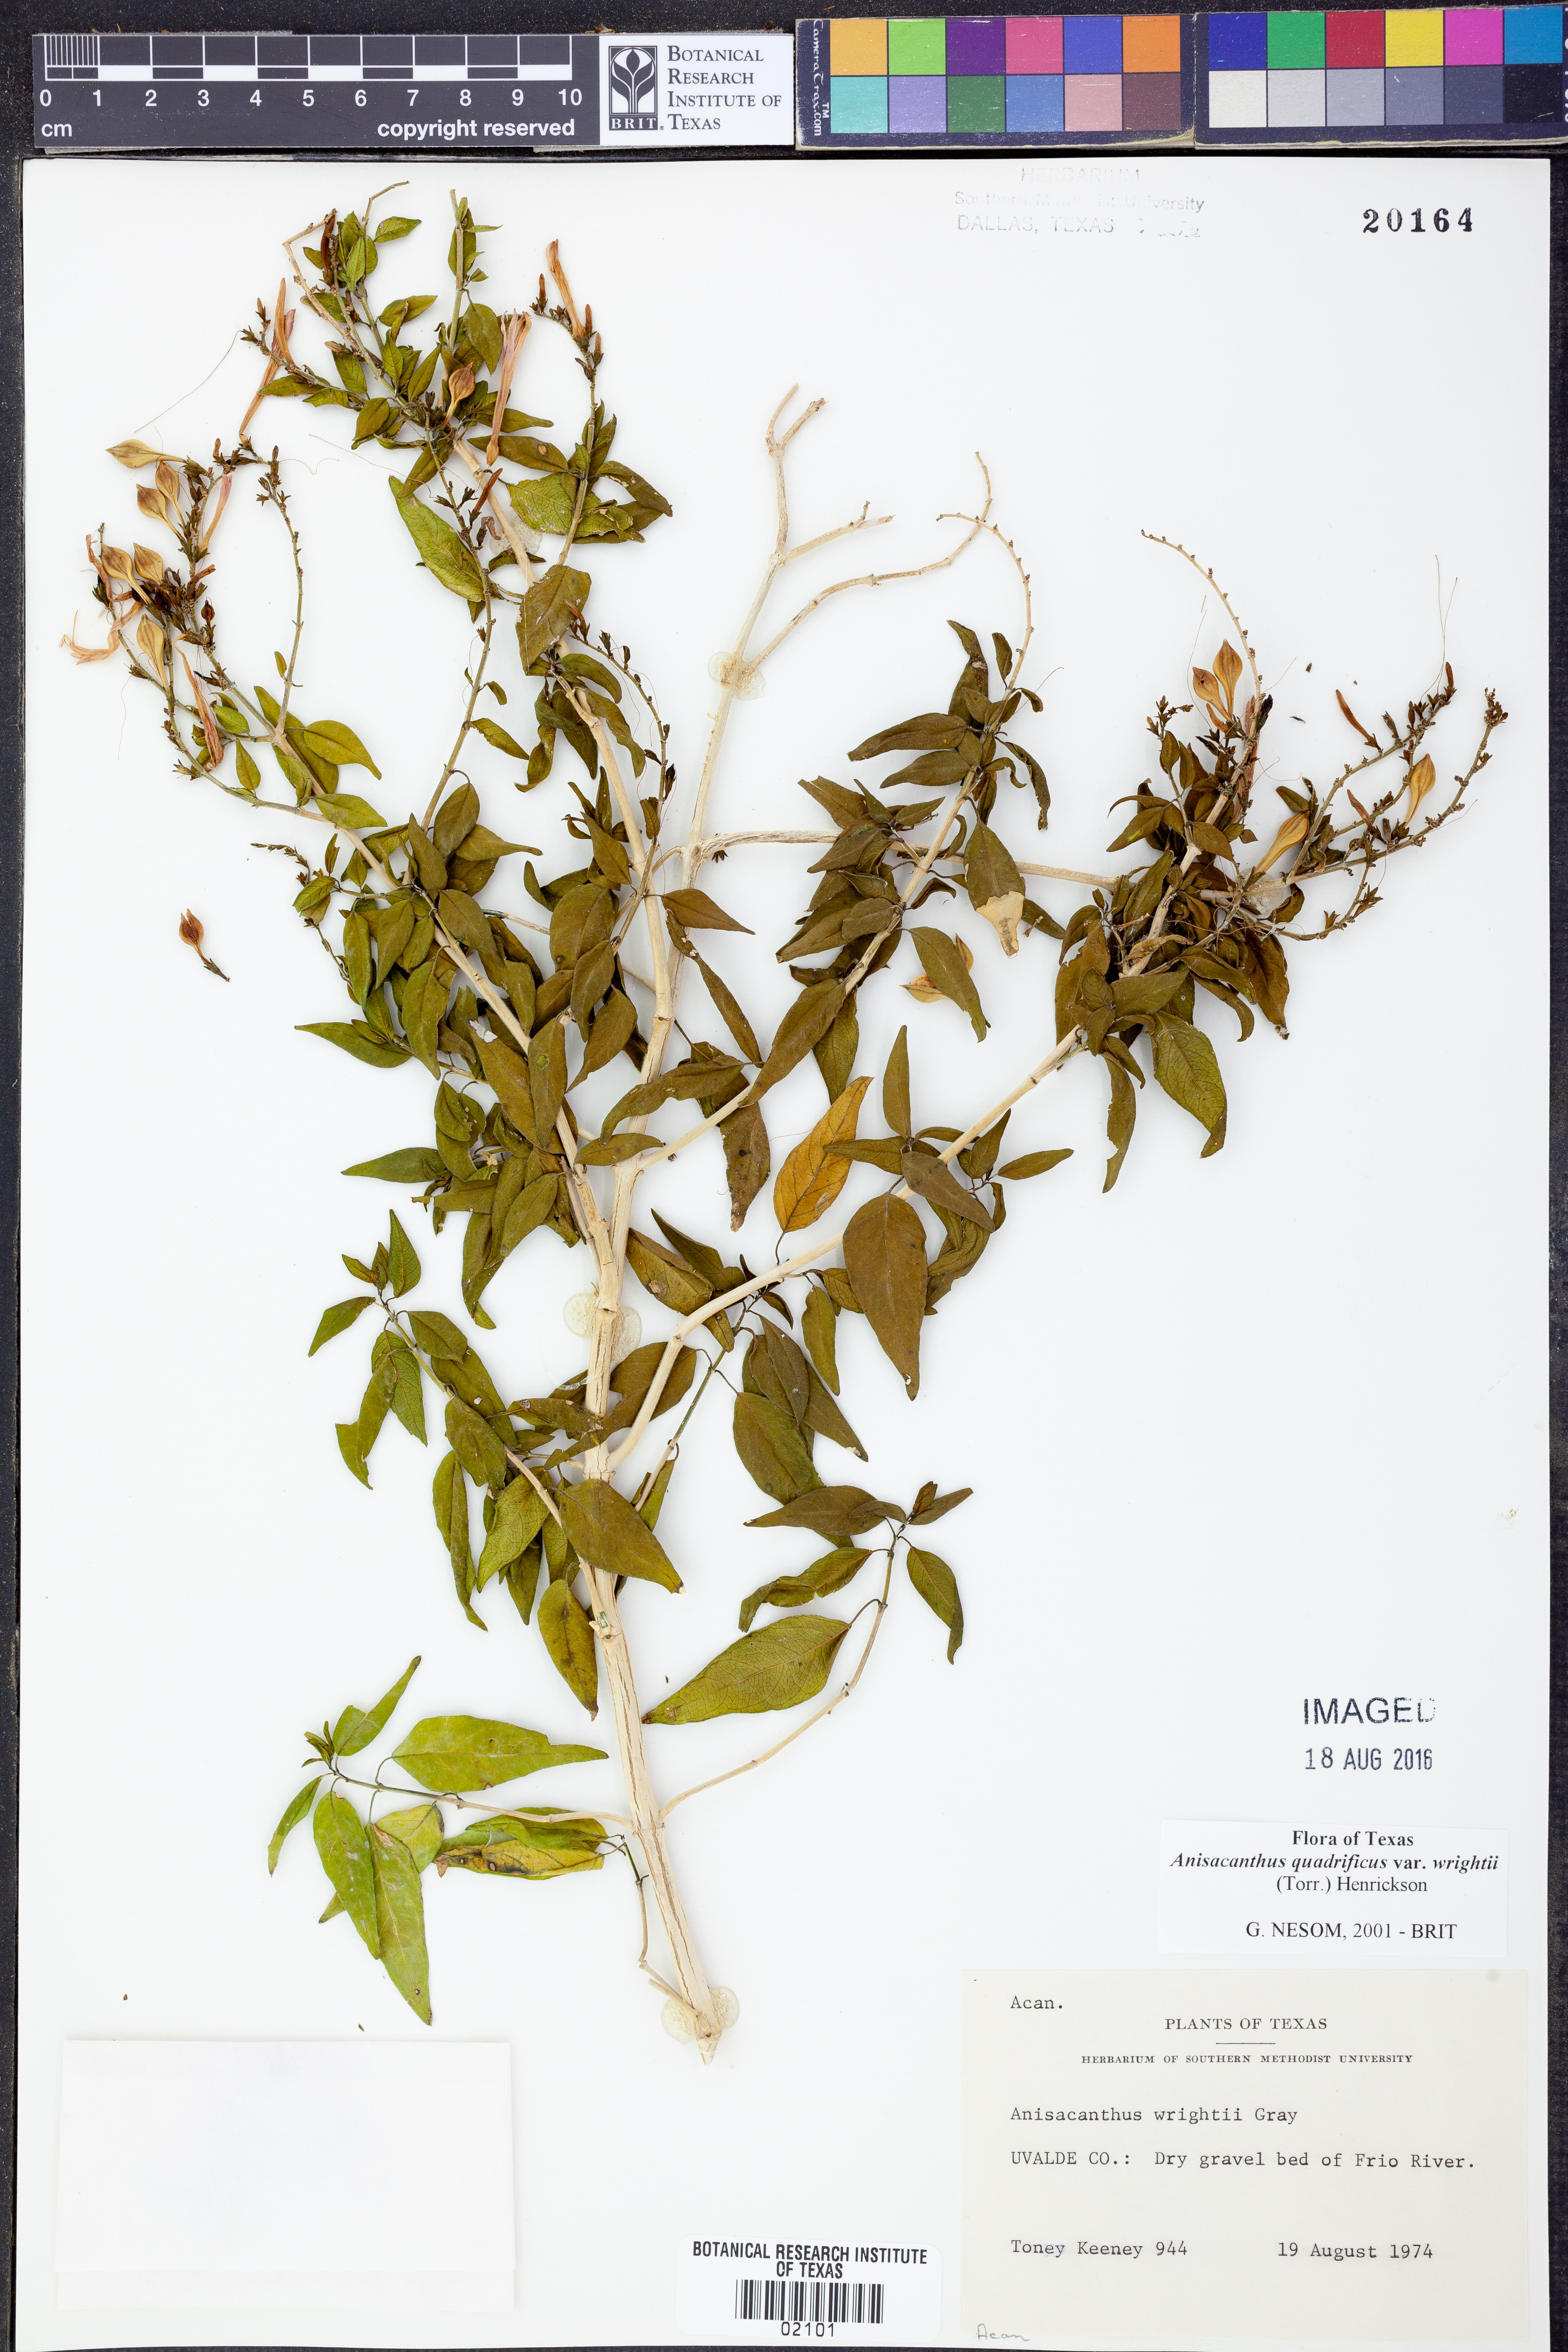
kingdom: Plantae
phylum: Tracheophyta
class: Magnoliopsida
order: Lamiales
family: Acanthaceae
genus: Anisacanthus
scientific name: Anisacanthus quadrifidus
